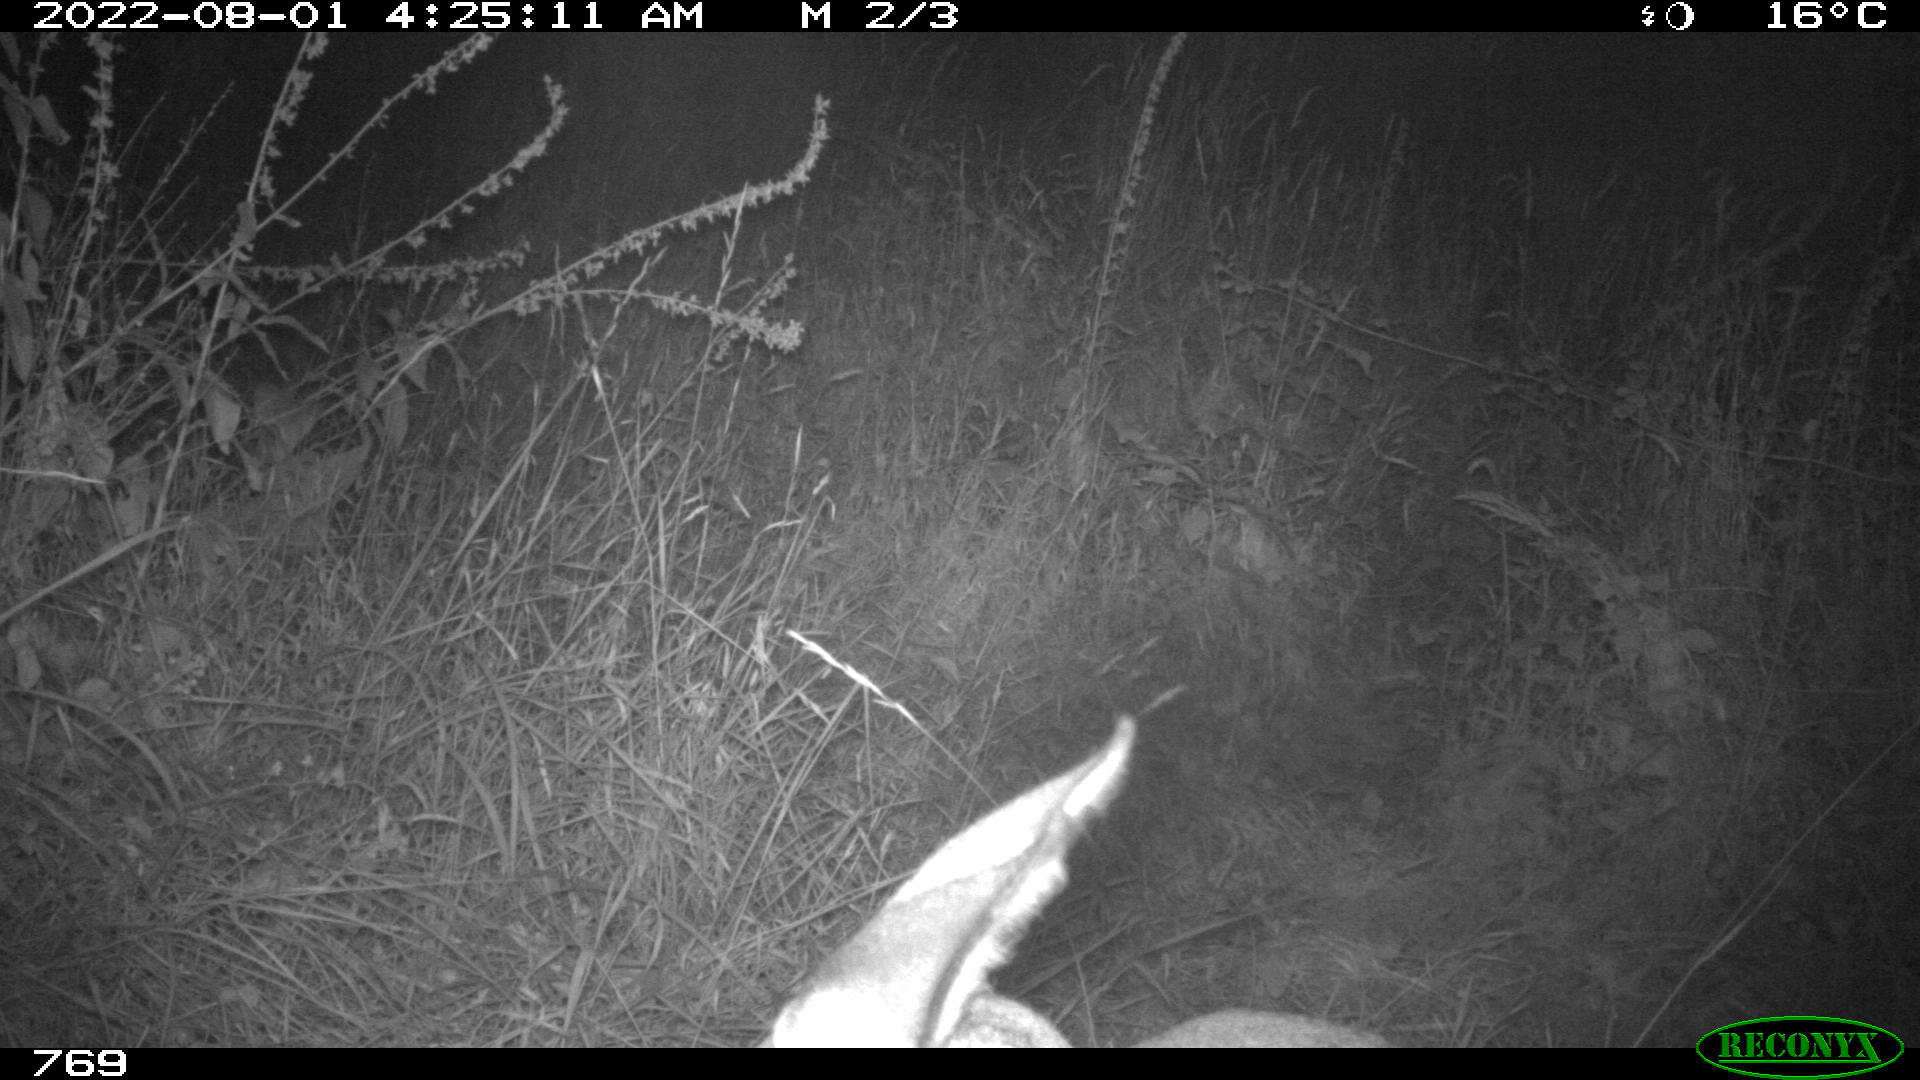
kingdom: Animalia
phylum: Chordata
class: Mammalia
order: Artiodactyla
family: Cervidae
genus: Capreolus
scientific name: Capreolus capreolus
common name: Western roe deer
